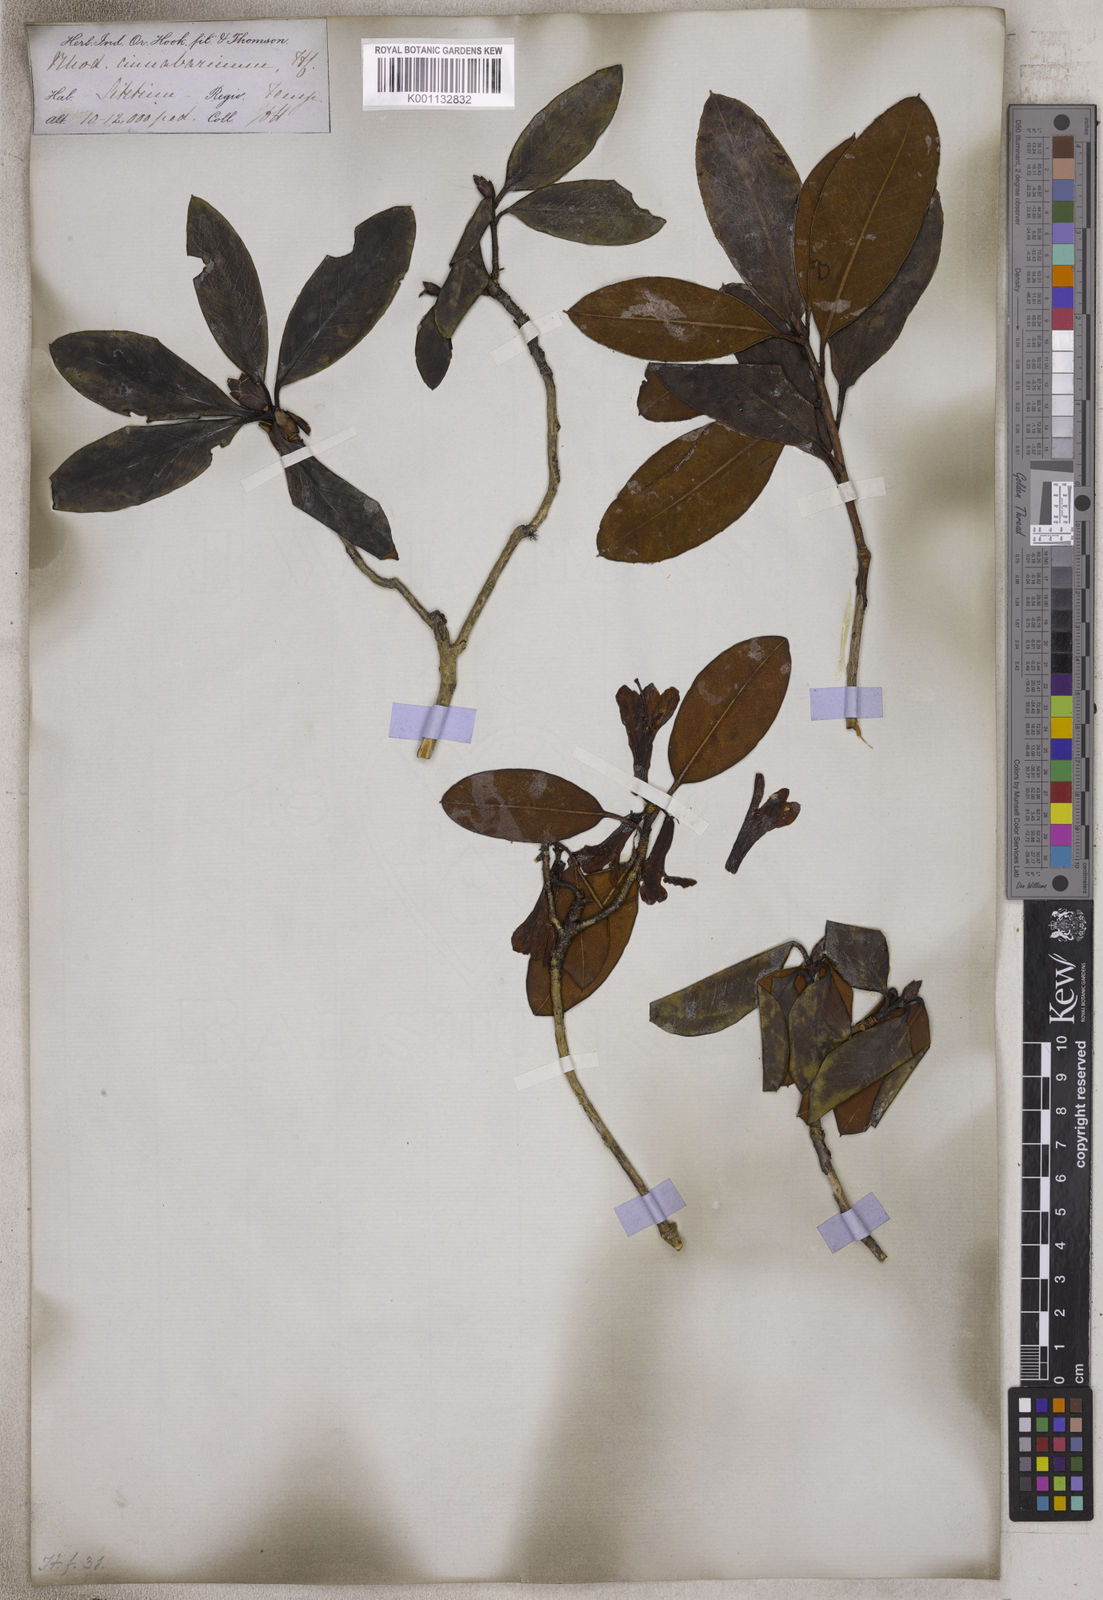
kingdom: Plantae
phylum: Tracheophyta
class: Magnoliopsida
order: Ericales
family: Ericaceae
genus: Rhododendron
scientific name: Rhododendron cinnabarinum
